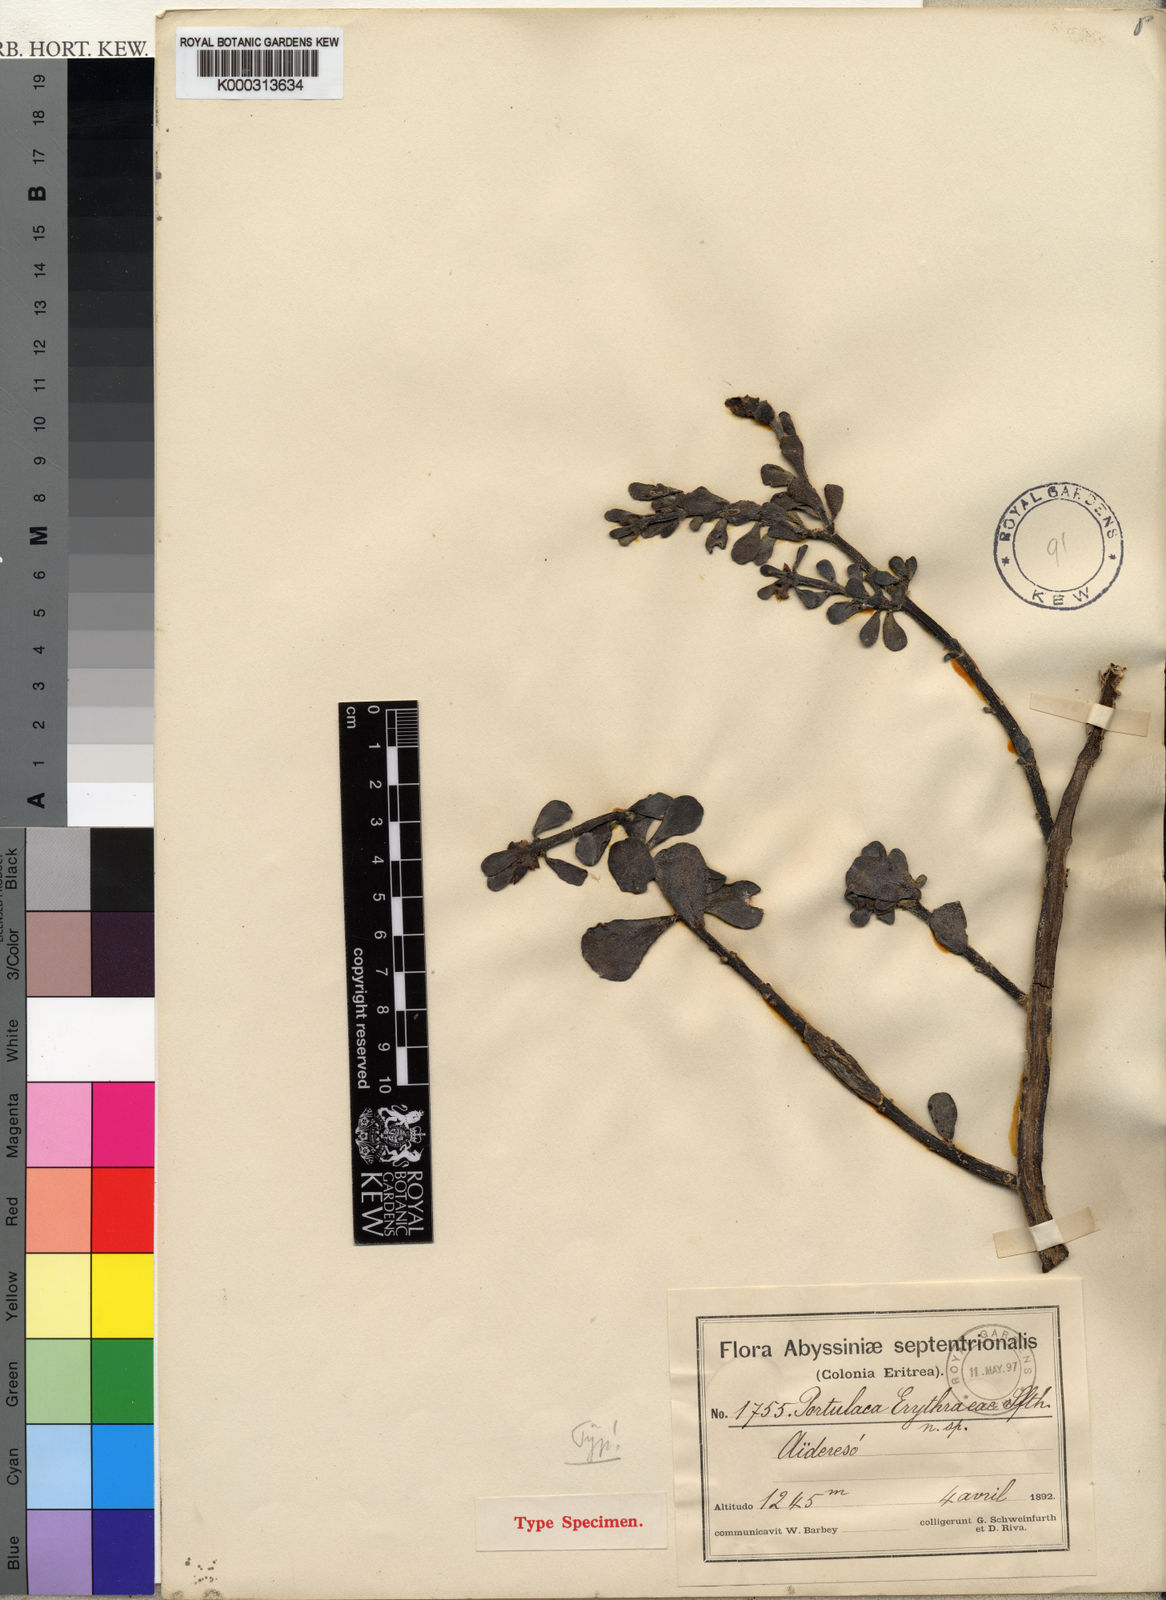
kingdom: Plantae
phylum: Tracheophyta
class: Magnoliopsida
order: Caryophyllales
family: Portulacaceae
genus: Portulaca
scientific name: Portulaca erythraeae
